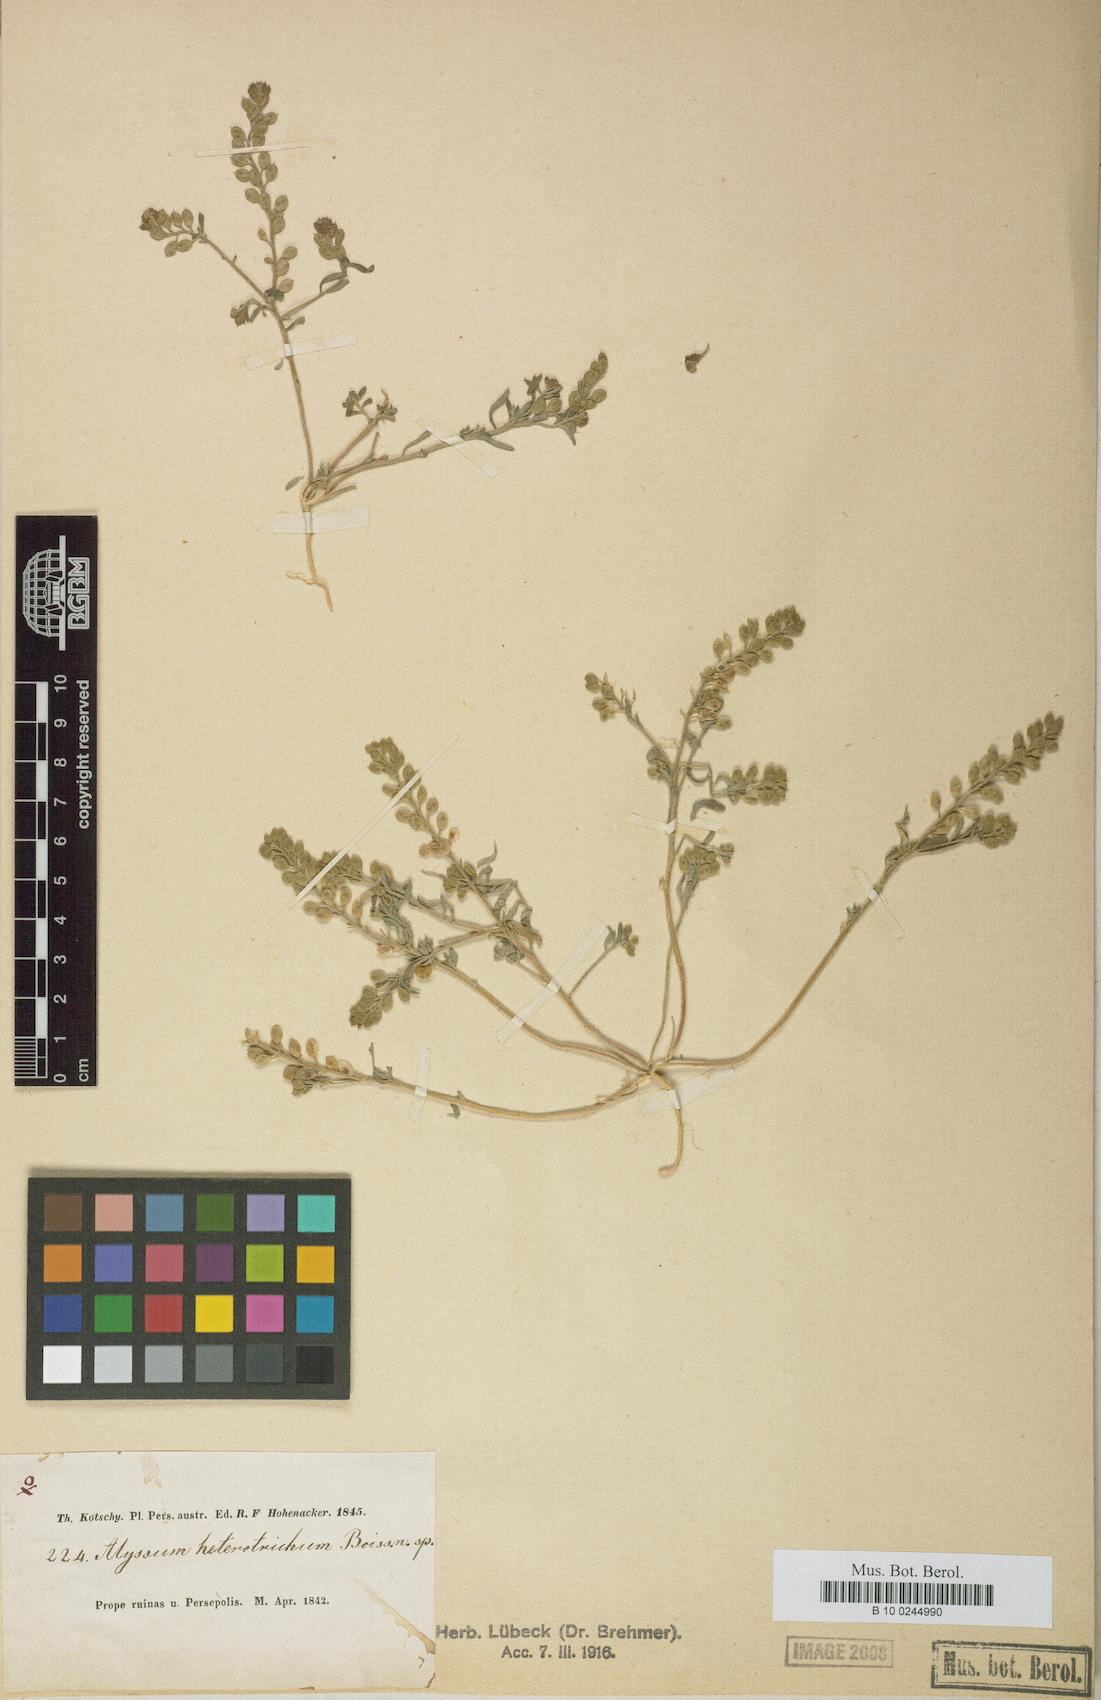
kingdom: Plantae
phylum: Tracheophyta
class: Magnoliopsida
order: Brassicales
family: Brassicaceae
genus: Meniocus
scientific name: Meniocus heterotrichus
